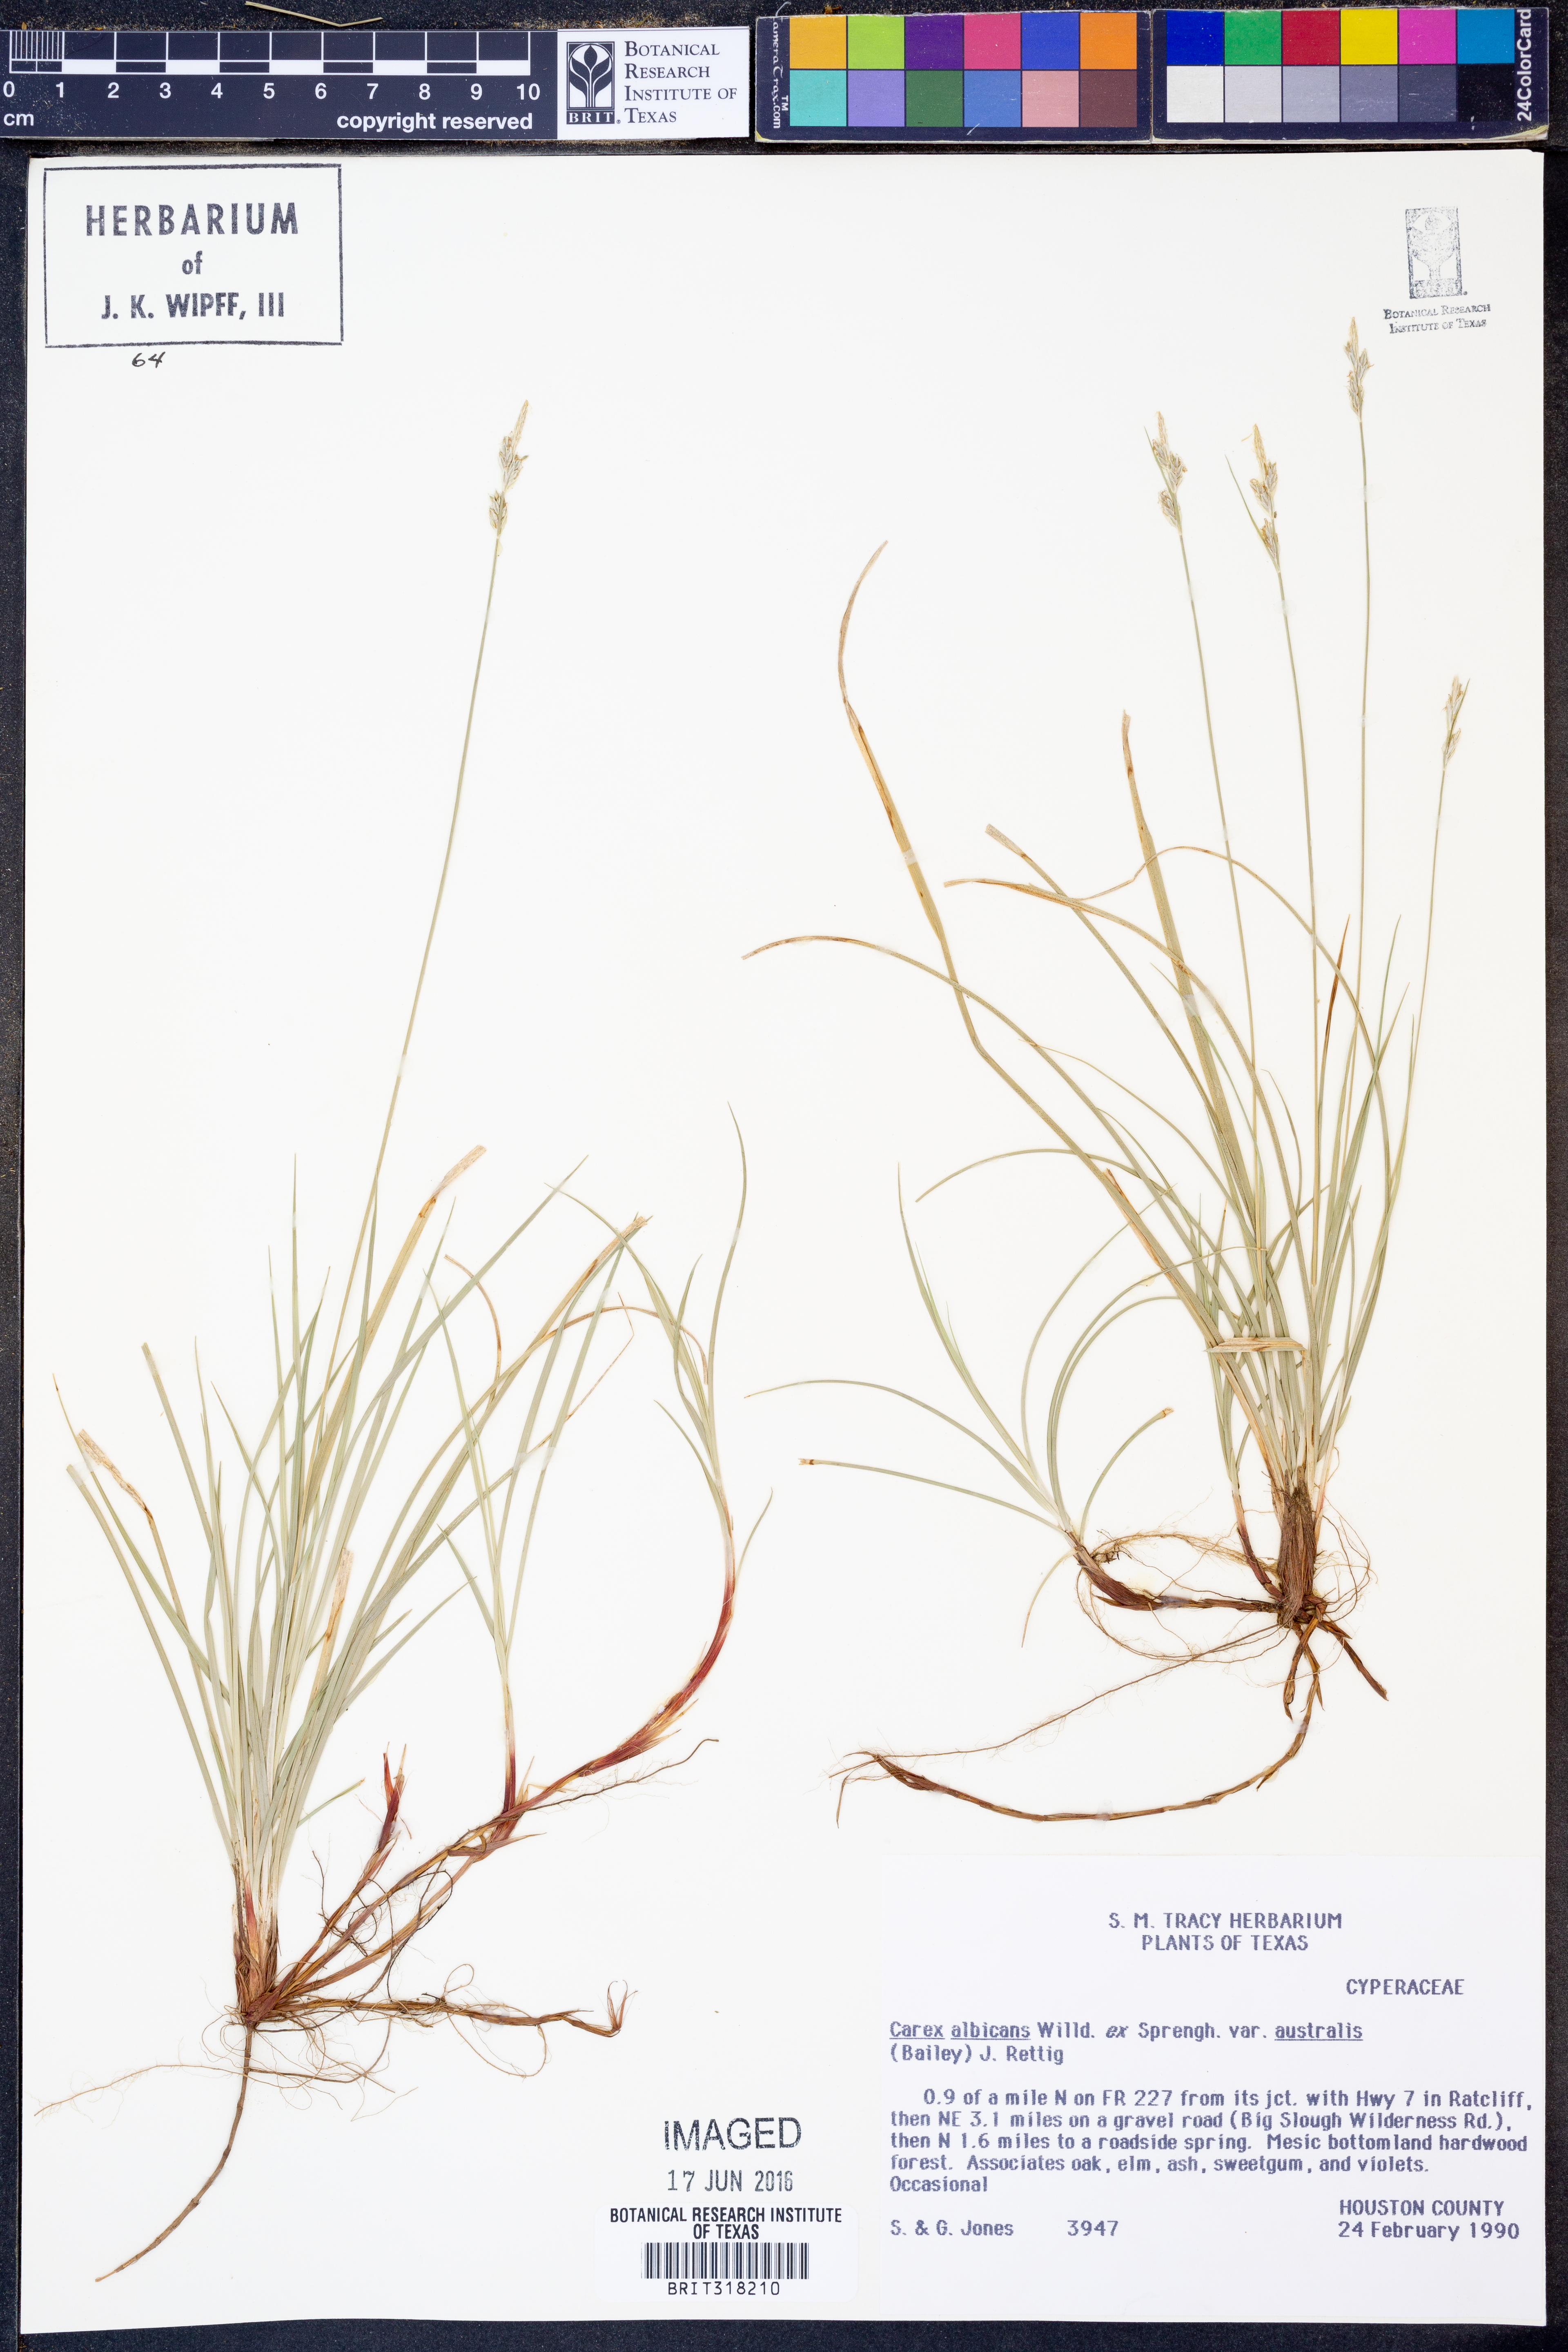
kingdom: Plantae
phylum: Tracheophyta
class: Liliopsida
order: Poales
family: Cyperaceae
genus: Carex
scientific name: Carex albicans
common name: Bellow-beaked sedge
